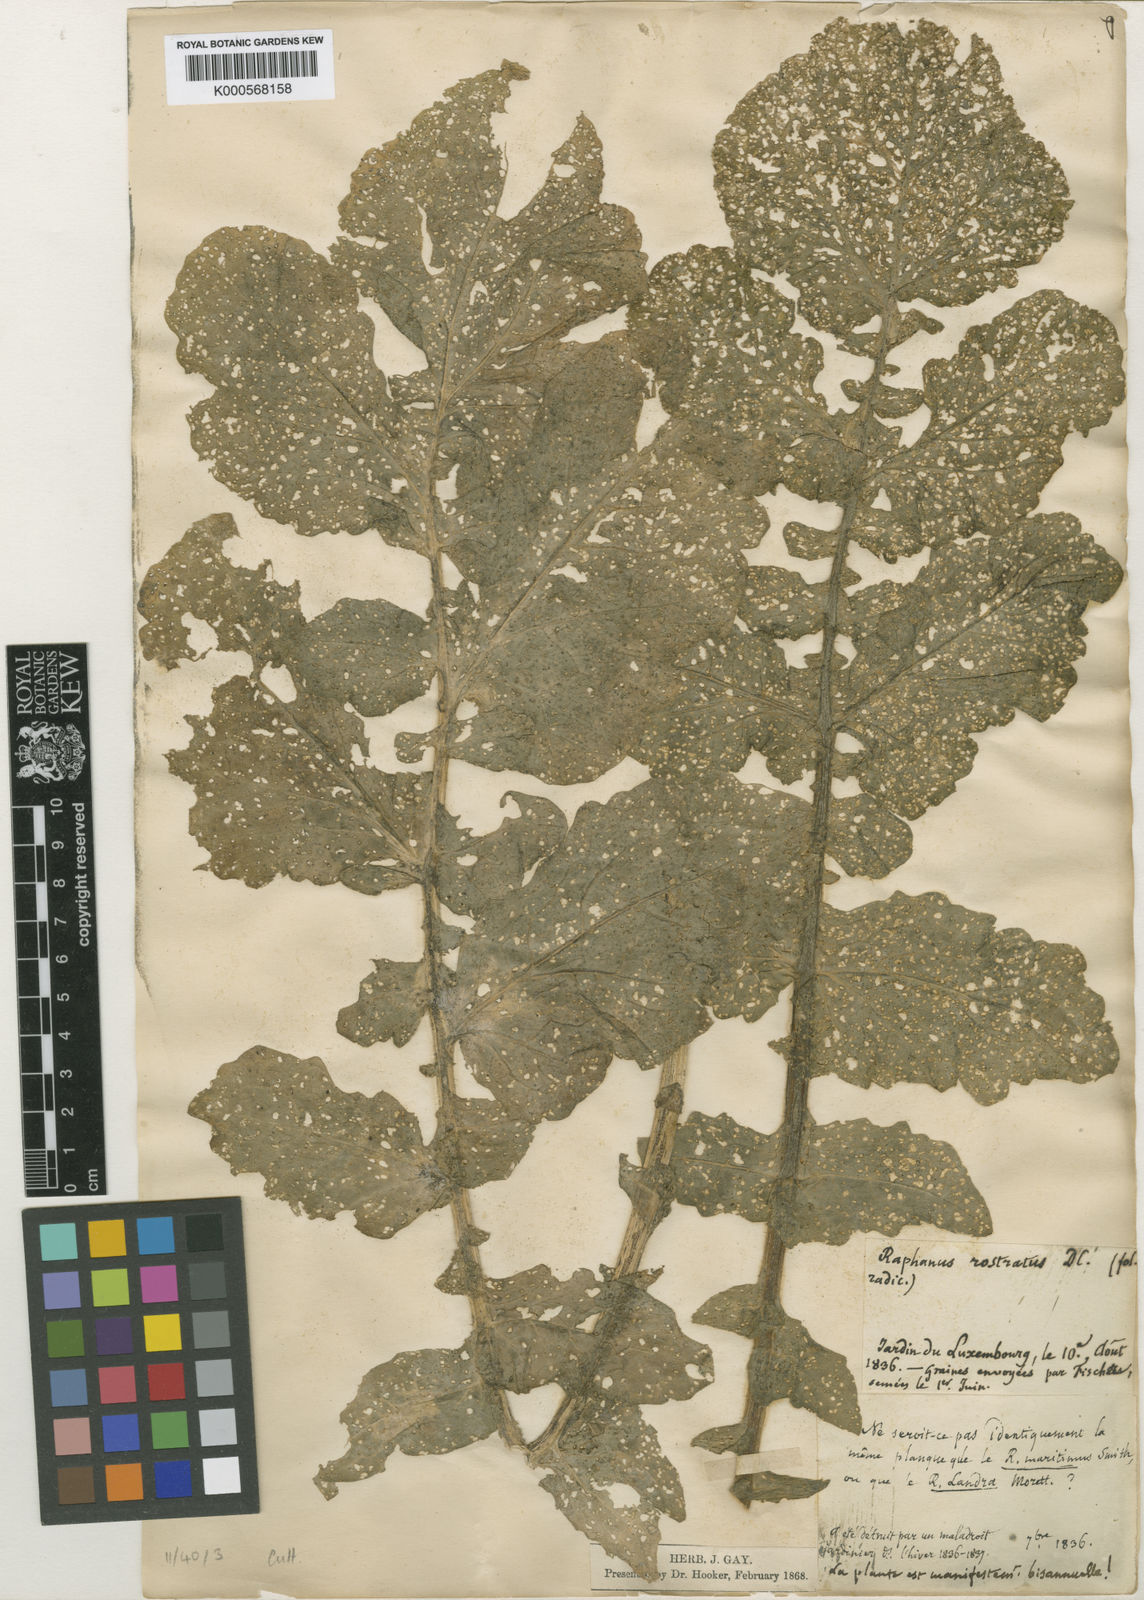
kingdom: Plantae
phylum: Tracheophyta
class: Magnoliopsida
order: Brassicales
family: Brassicaceae
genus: Raphanus
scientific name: Raphanus raphanistrum
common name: Wild radish
